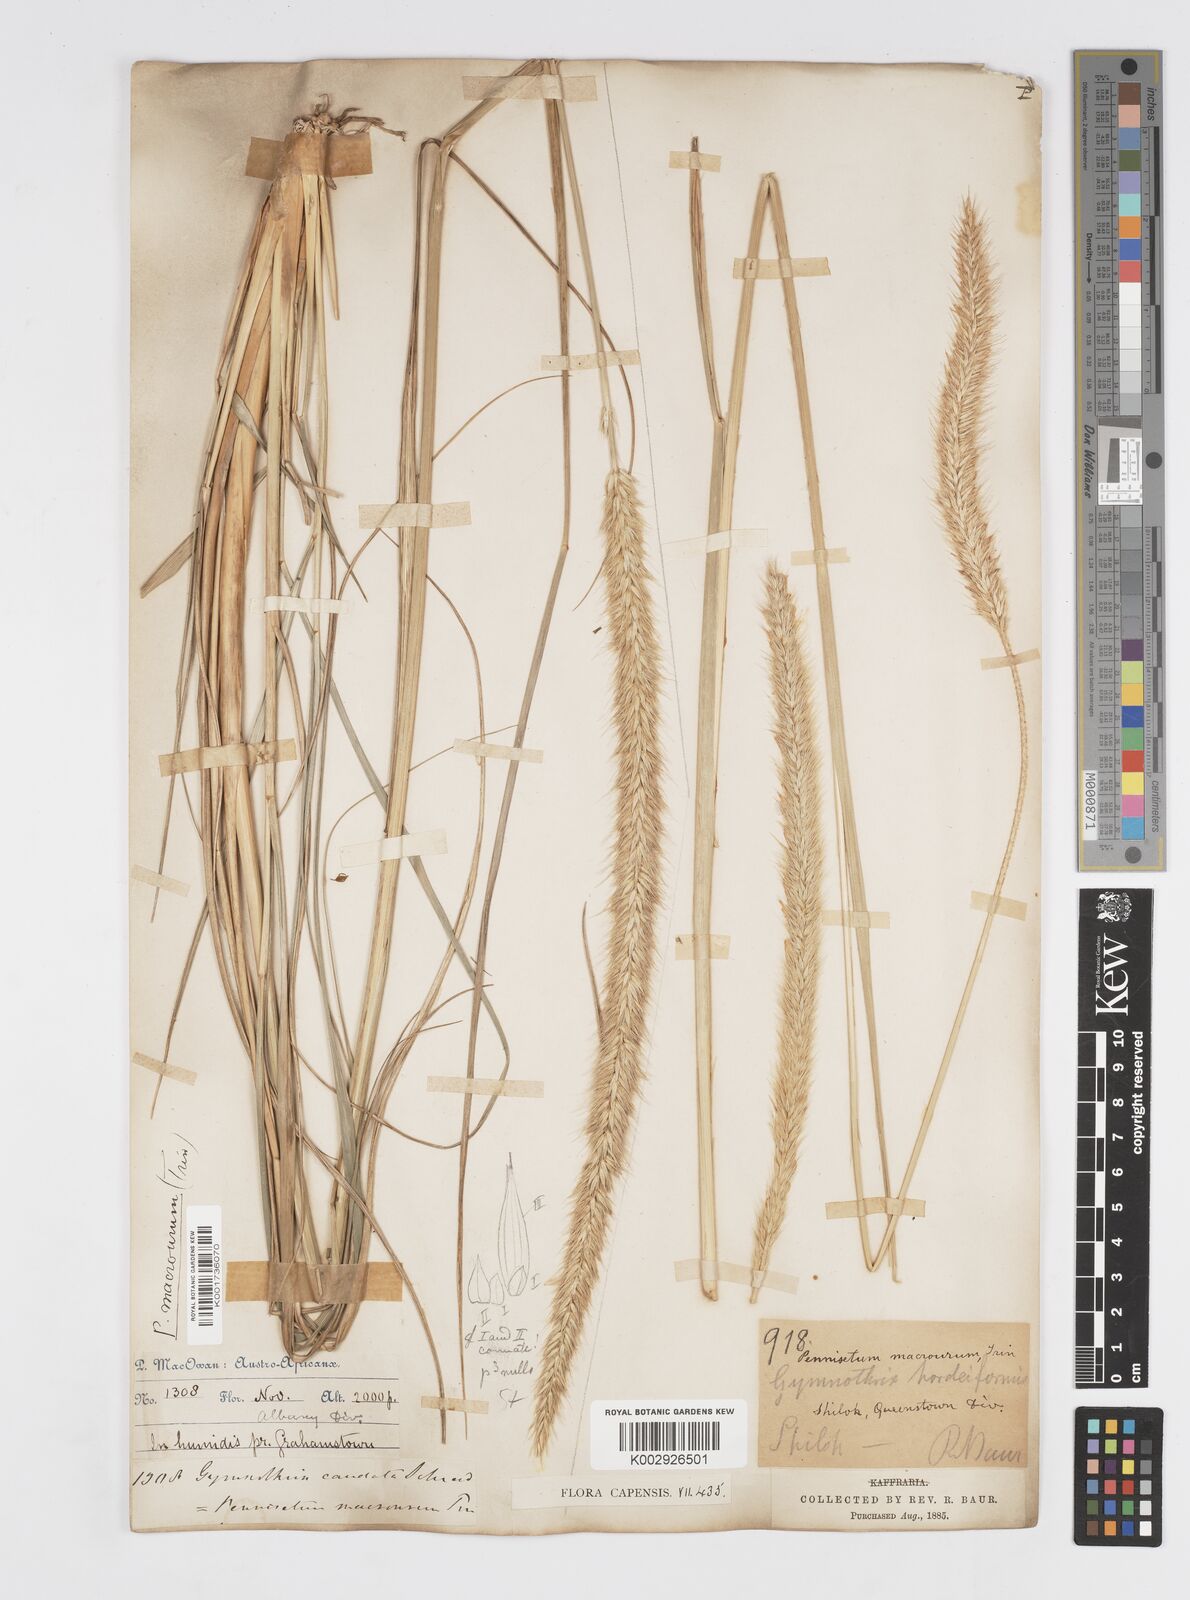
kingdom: Plantae
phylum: Tracheophyta
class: Liliopsida
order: Poales
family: Poaceae
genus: Cenchrus
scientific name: Cenchrus caudatus
